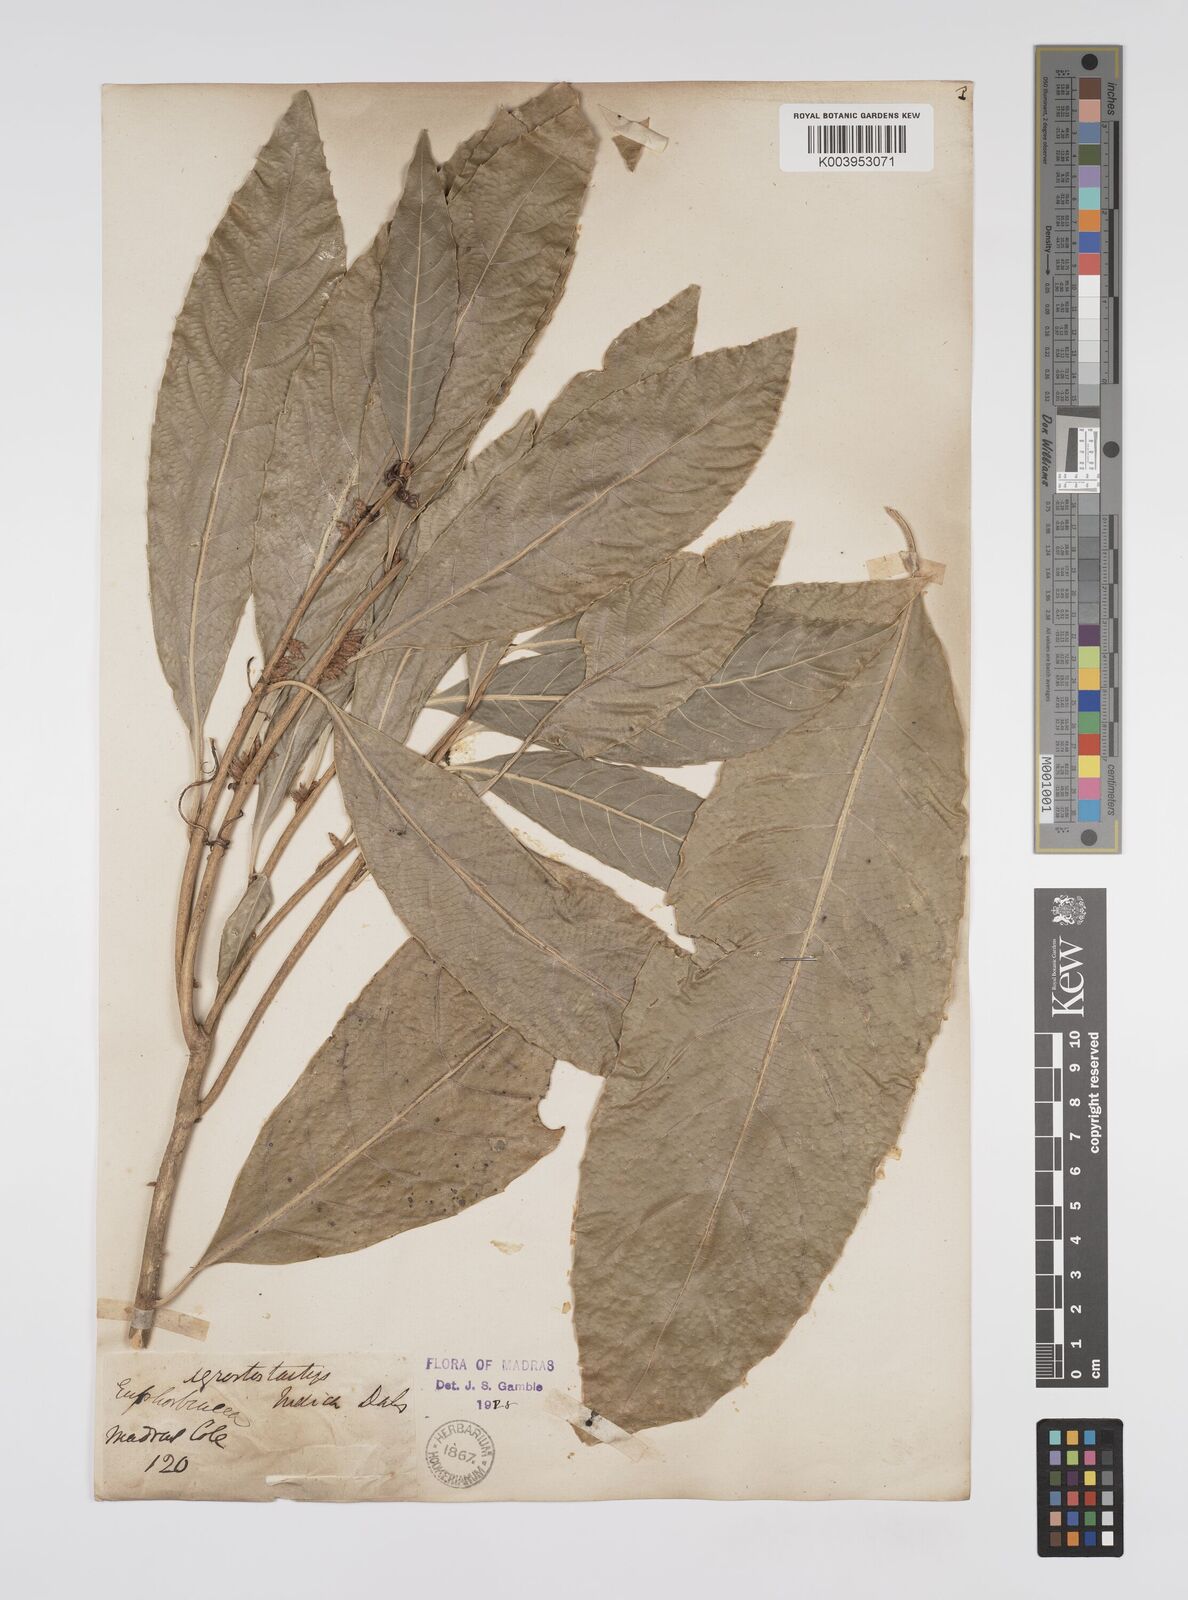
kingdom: Plantae
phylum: Tracheophyta
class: Magnoliopsida
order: Malpighiales
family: Euphorbiaceae
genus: Agrostistachys
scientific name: Agrostistachys indica
